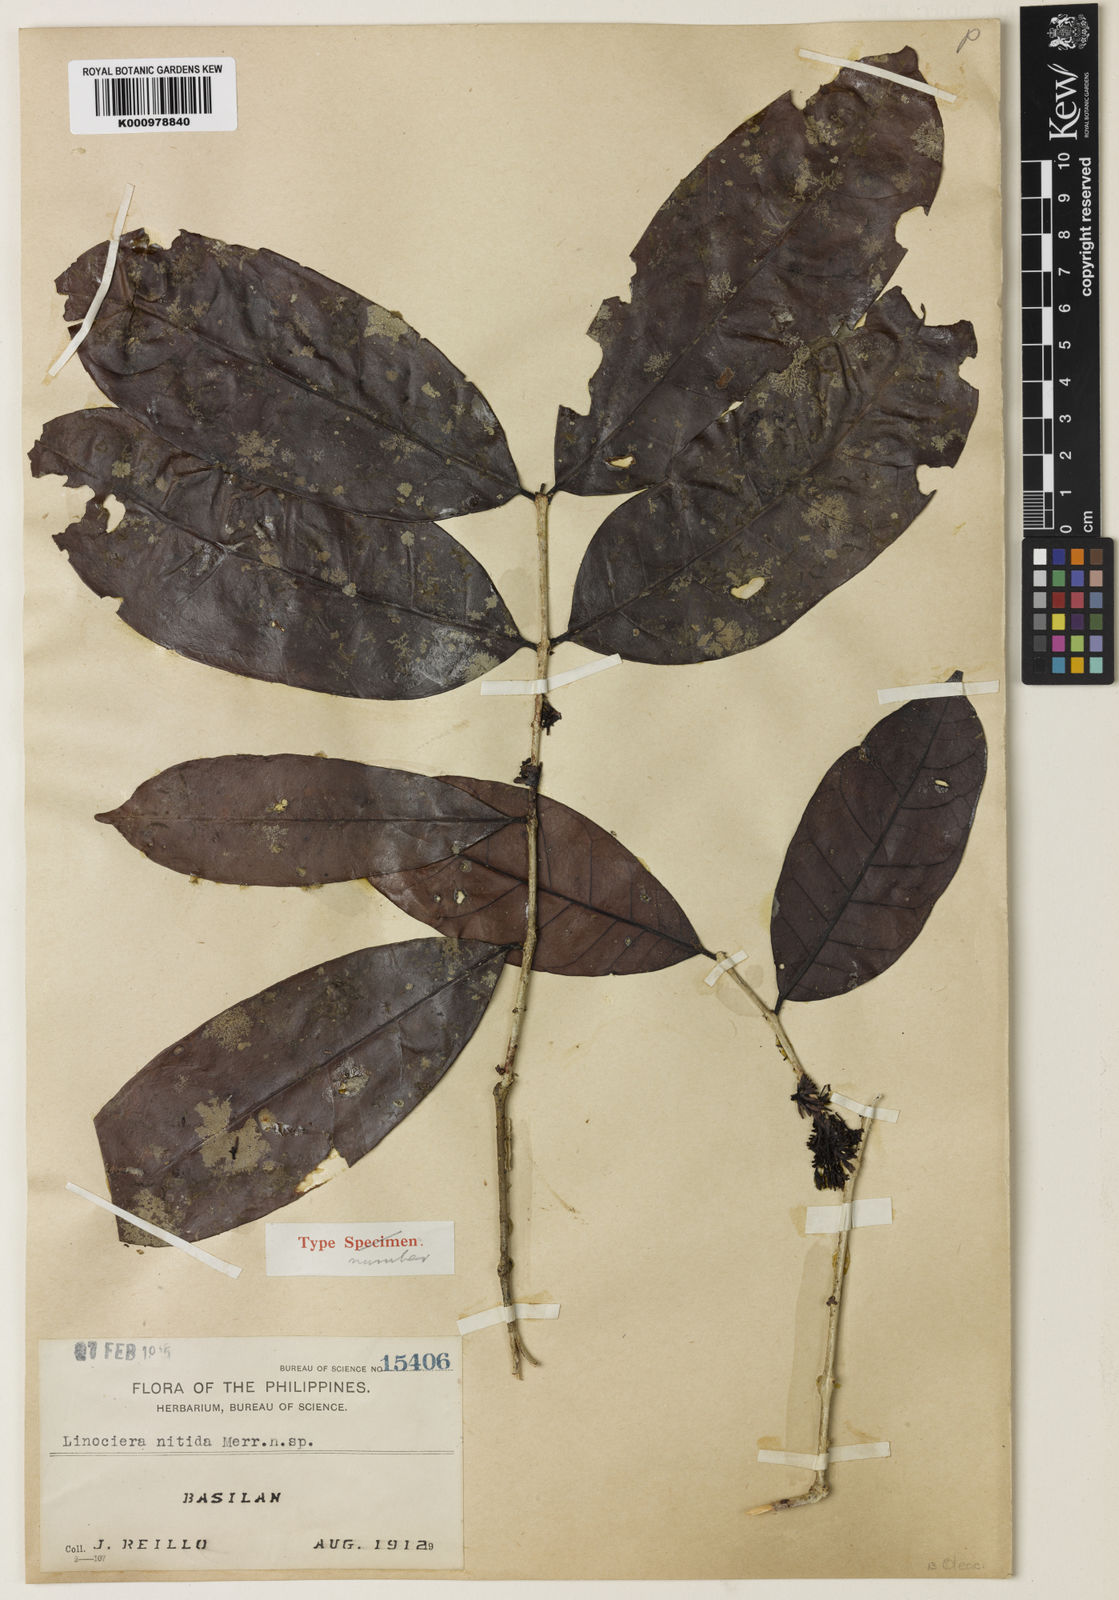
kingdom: Plantae
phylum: Tracheophyta
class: Magnoliopsida
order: Lamiales
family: Oleaceae
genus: Chionanthus
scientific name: Chionanthus nitidus
